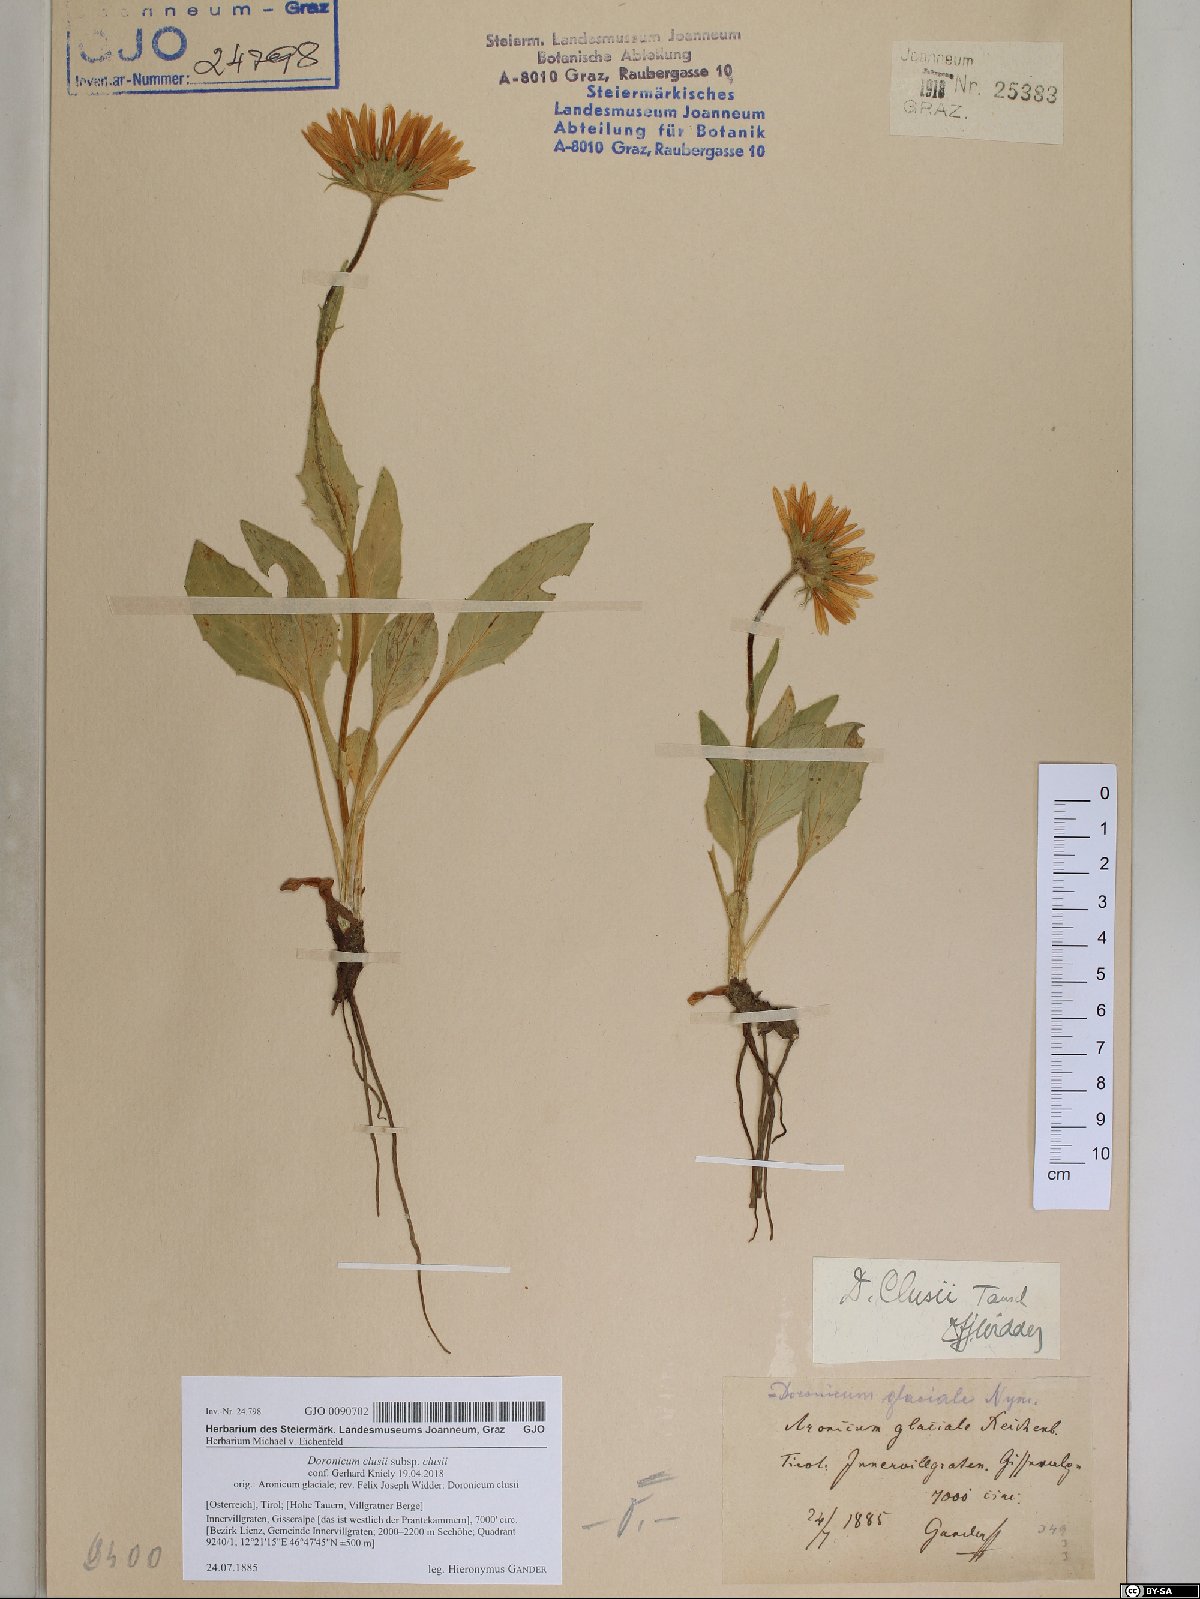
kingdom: Plantae
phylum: Tracheophyta
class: Magnoliopsida
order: Asterales
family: Asteraceae
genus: Doronicum
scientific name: Doronicum clusii
